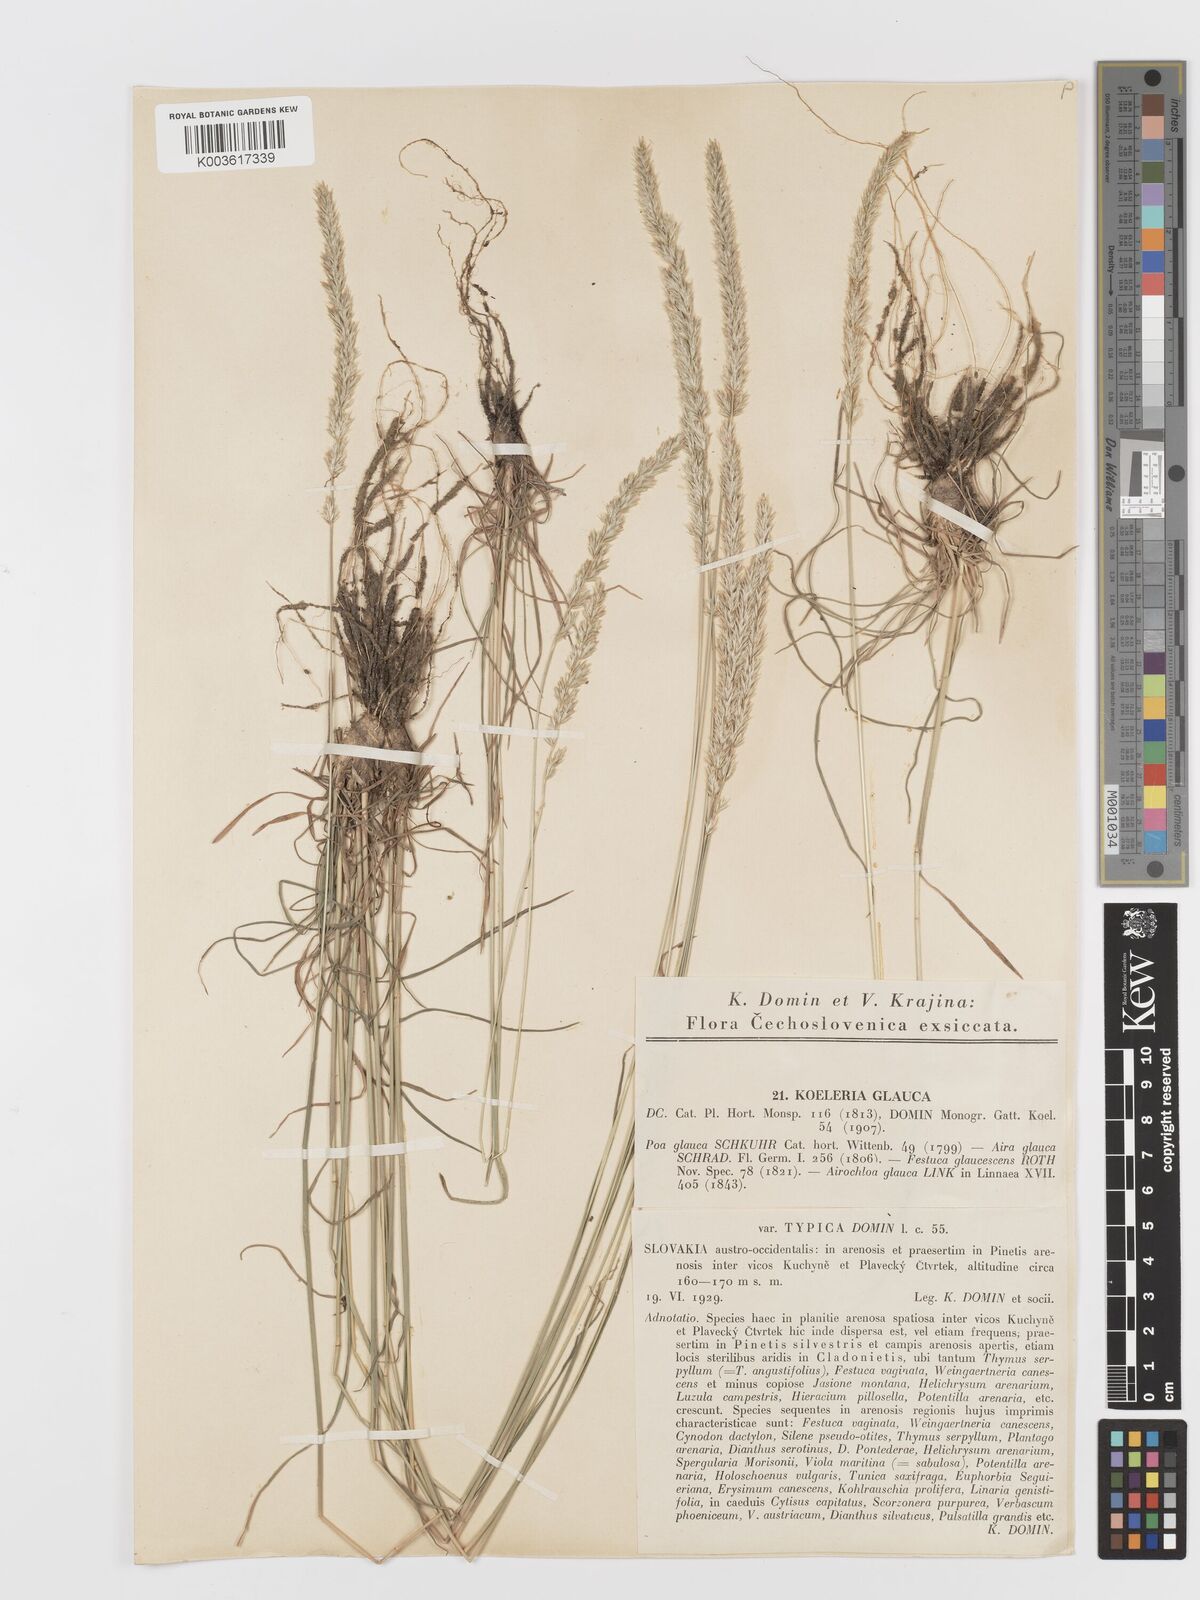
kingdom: Plantae
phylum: Tracheophyta
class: Liliopsida
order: Poales
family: Poaceae
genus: Koeleria
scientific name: Koeleria glauca
